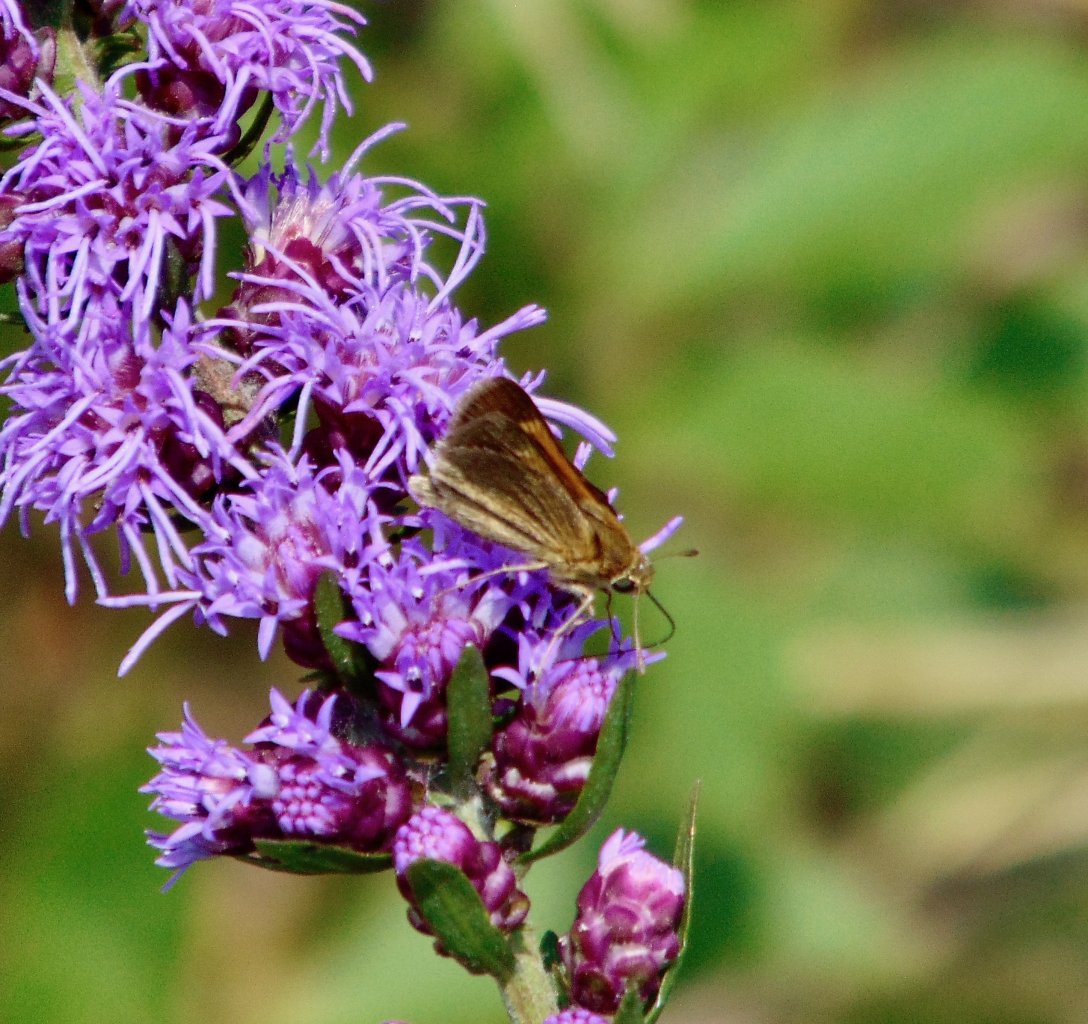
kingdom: Animalia
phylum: Arthropoda
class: Insecta
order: Lepidoptera
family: Hesperiidae
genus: Polites
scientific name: Polites themistocles
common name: Tawny-edged Skipper
